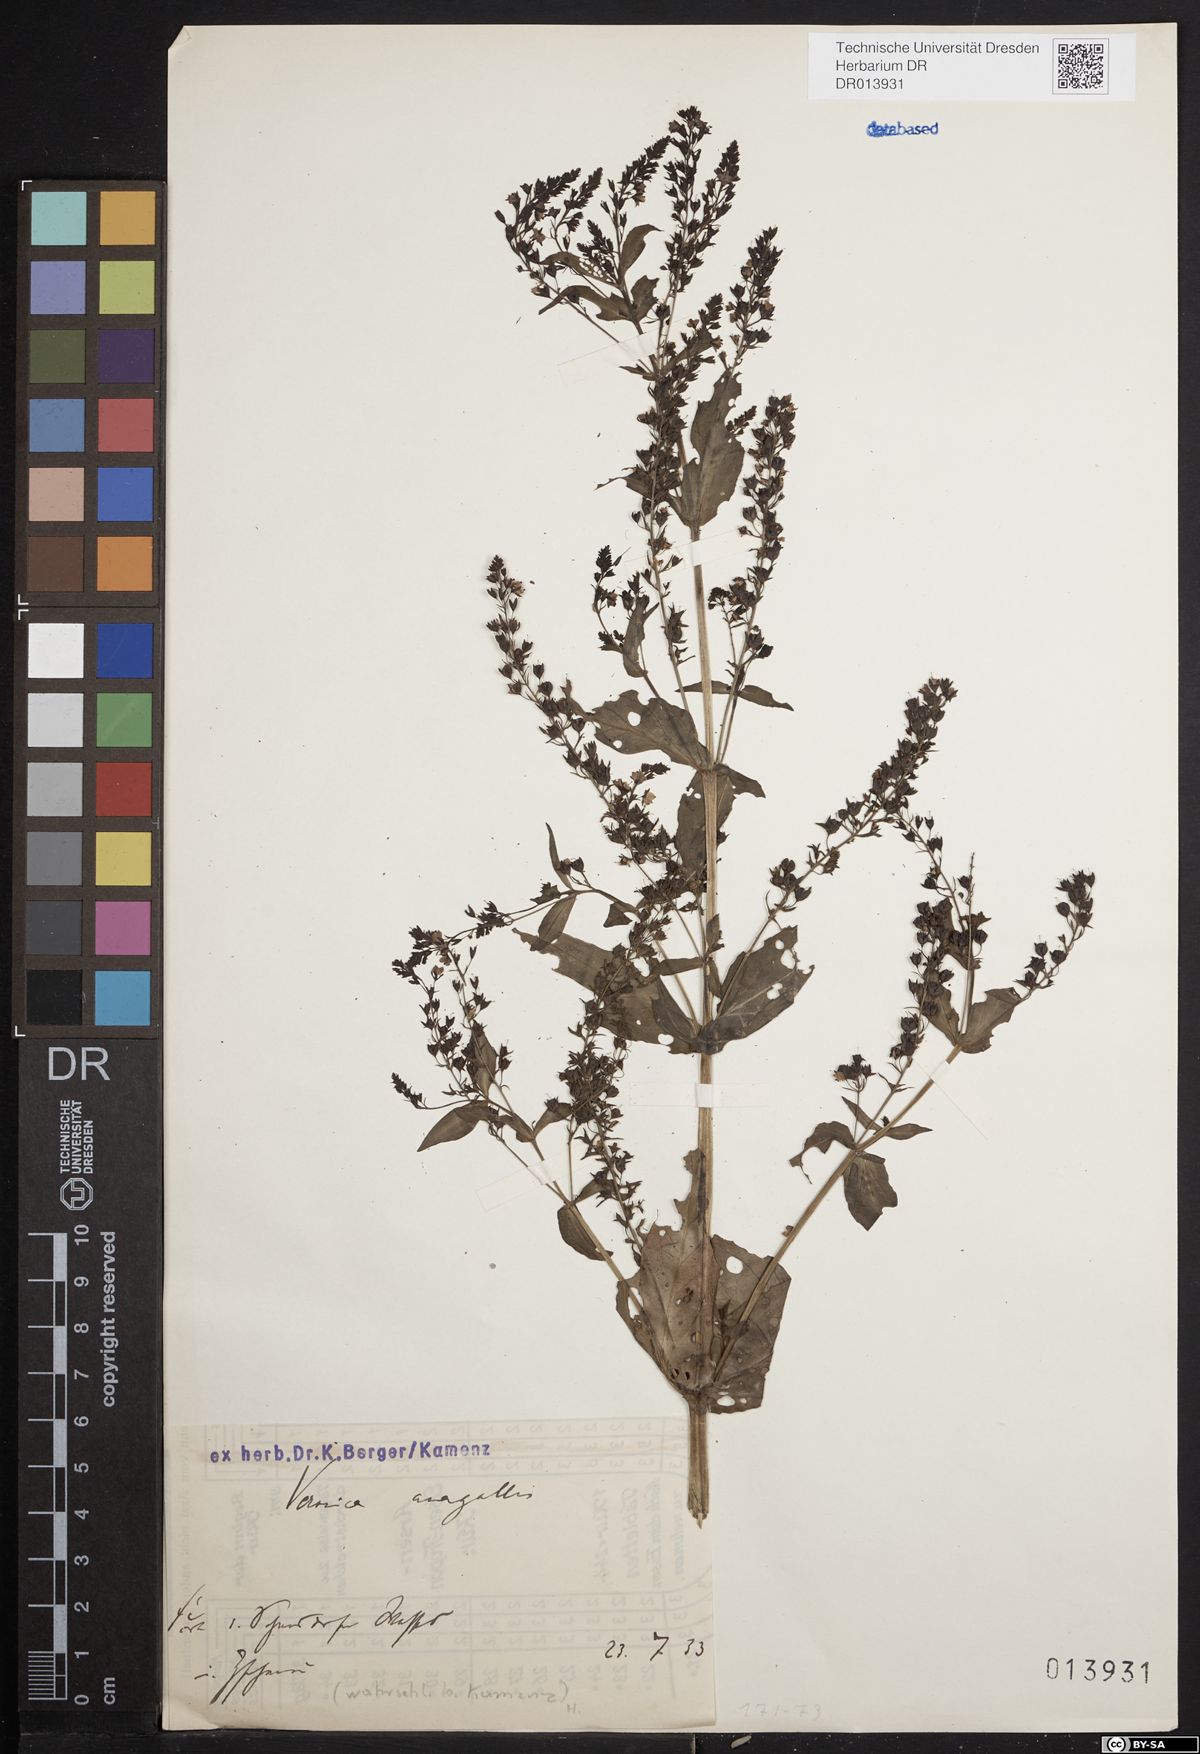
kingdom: Plantae
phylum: Tracheophyta
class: Magnoliopsida
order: Lamiales
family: Plantaginaceae
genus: Veronica
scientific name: Veronica anagallis-aquatica
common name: Water speedwell
